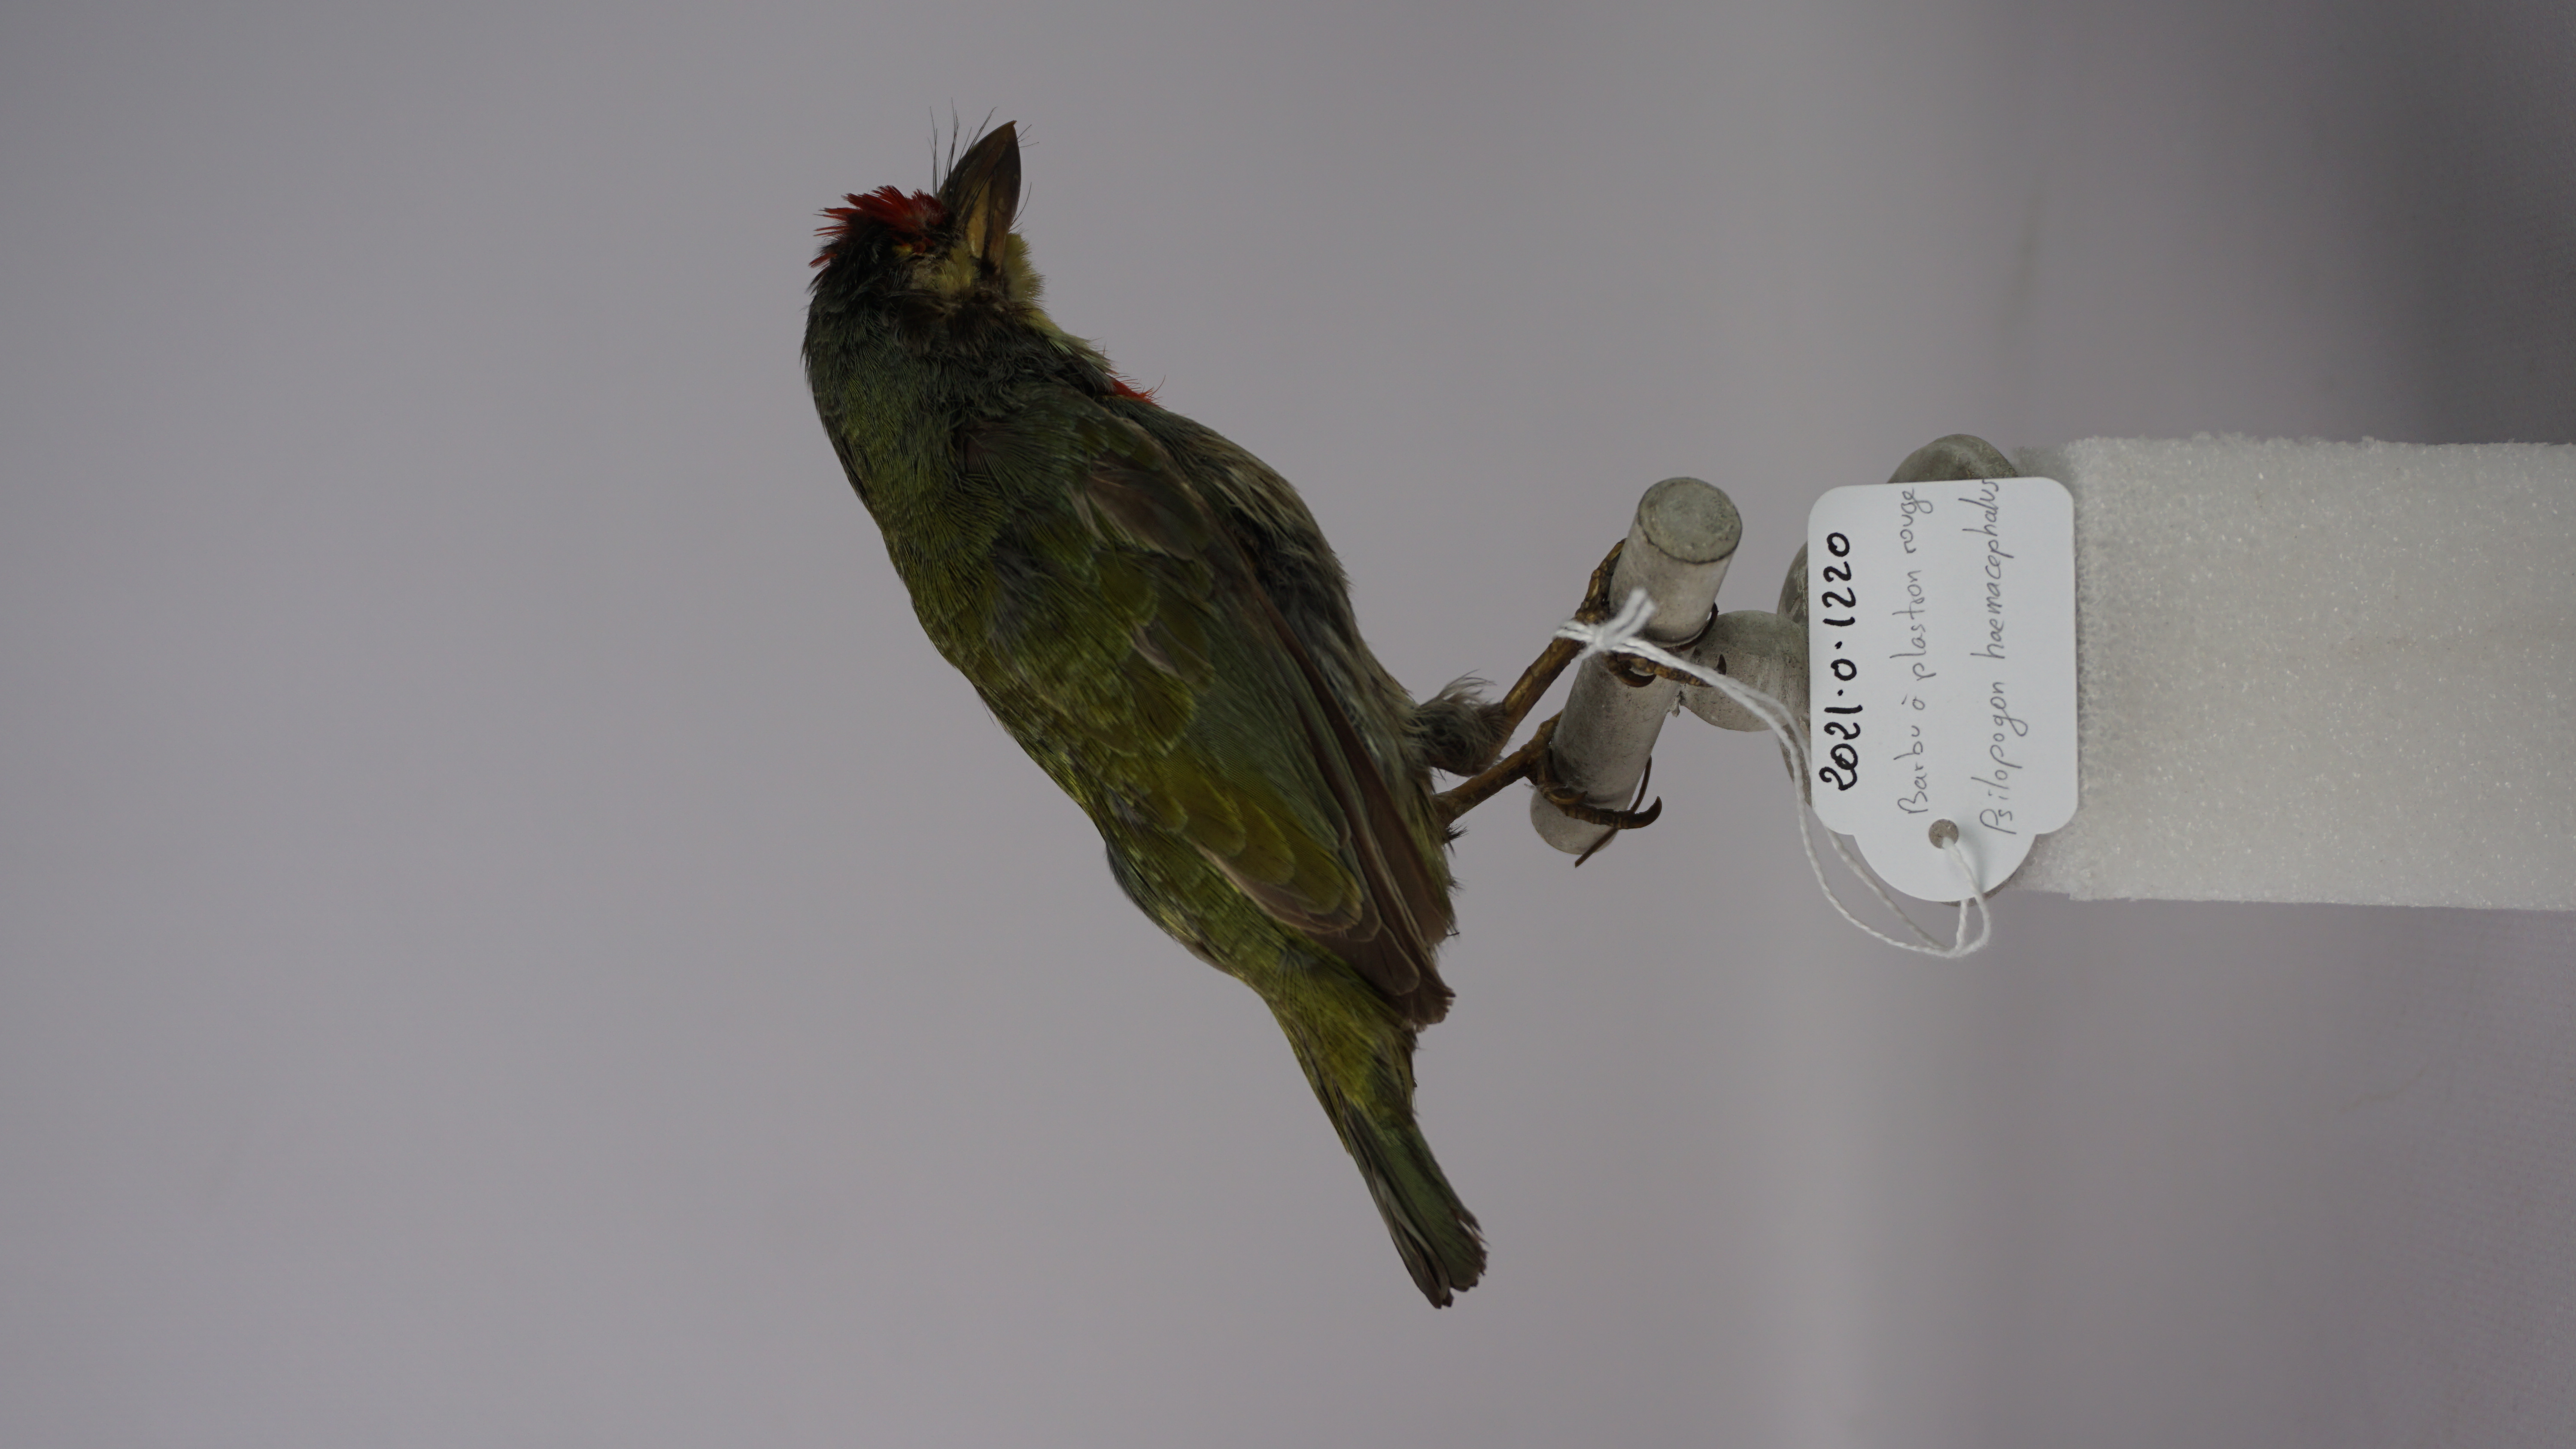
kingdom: Animalia
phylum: Chordata
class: Aves
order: Piciformes
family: Megalaimidae
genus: Psilopogon
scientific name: Psilopogon haemacephalus
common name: Coppersmith barbet
